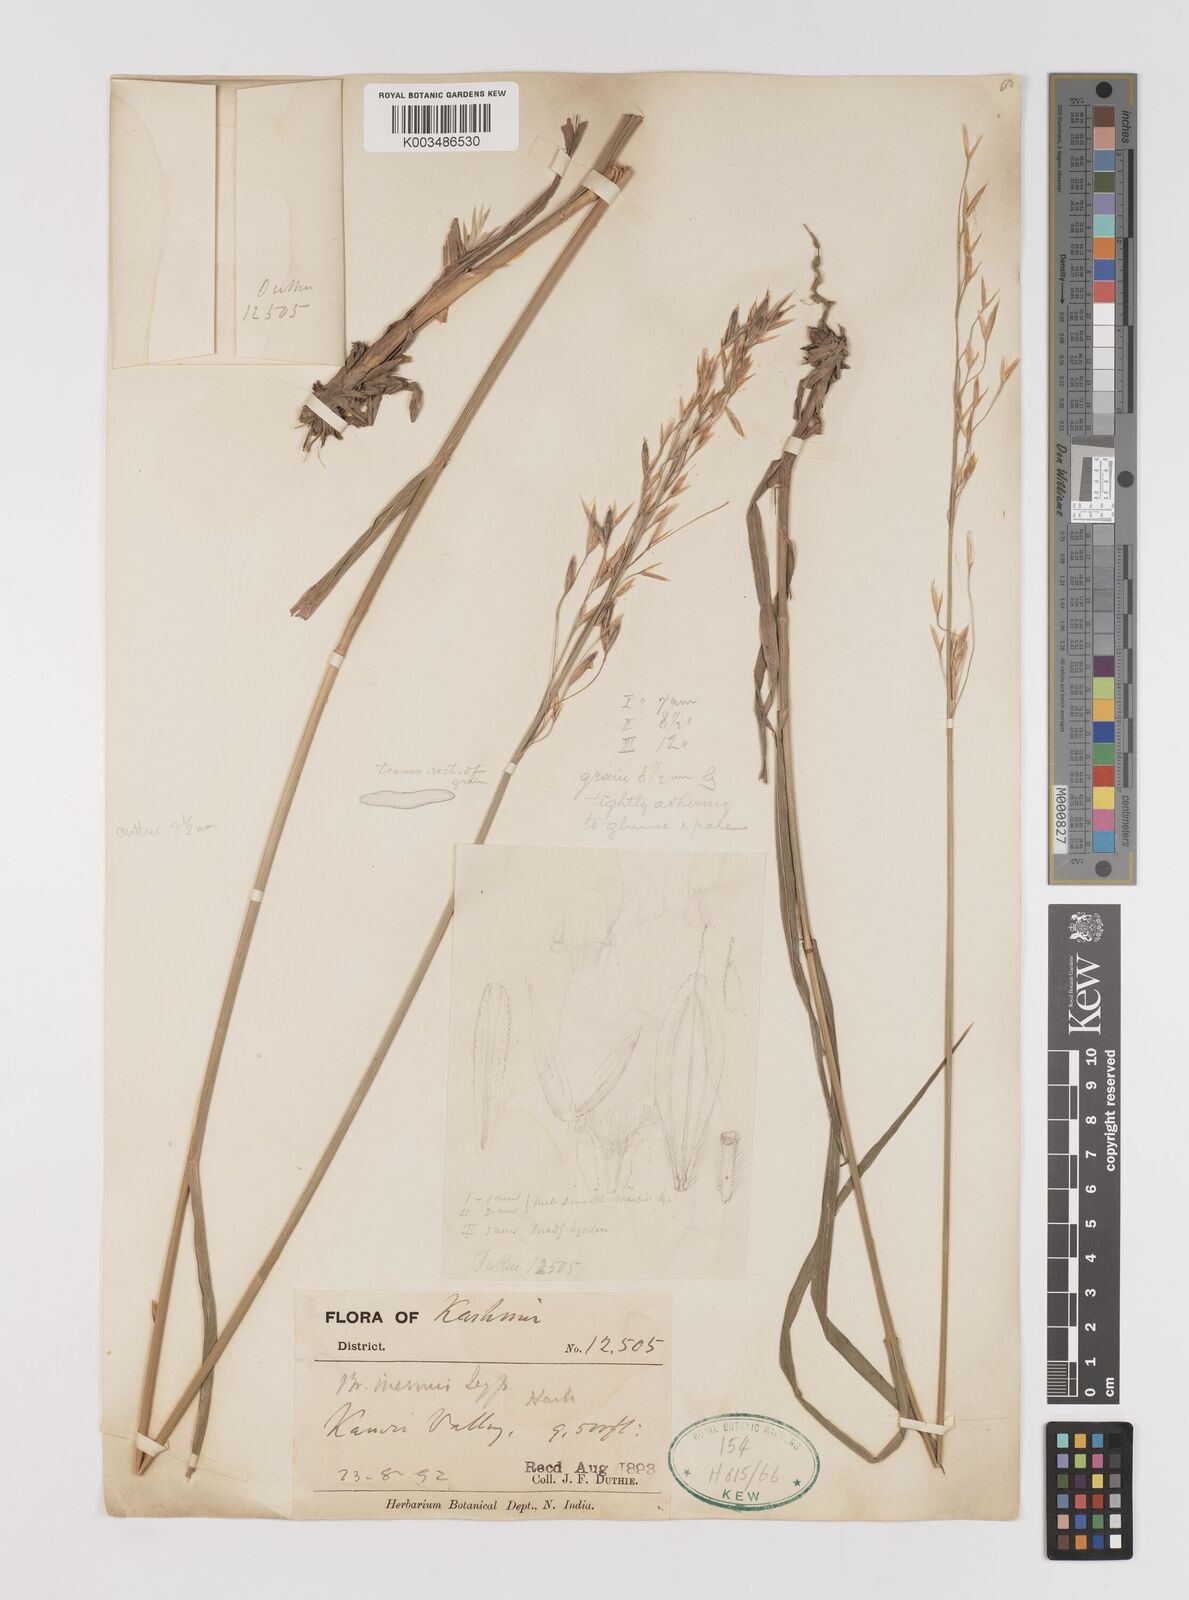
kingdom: Plantae
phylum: Tracheophyta
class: Liliopsida
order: Poales
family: Poaceae
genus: Bromus
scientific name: Bromus inermis
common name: Smooth brome
